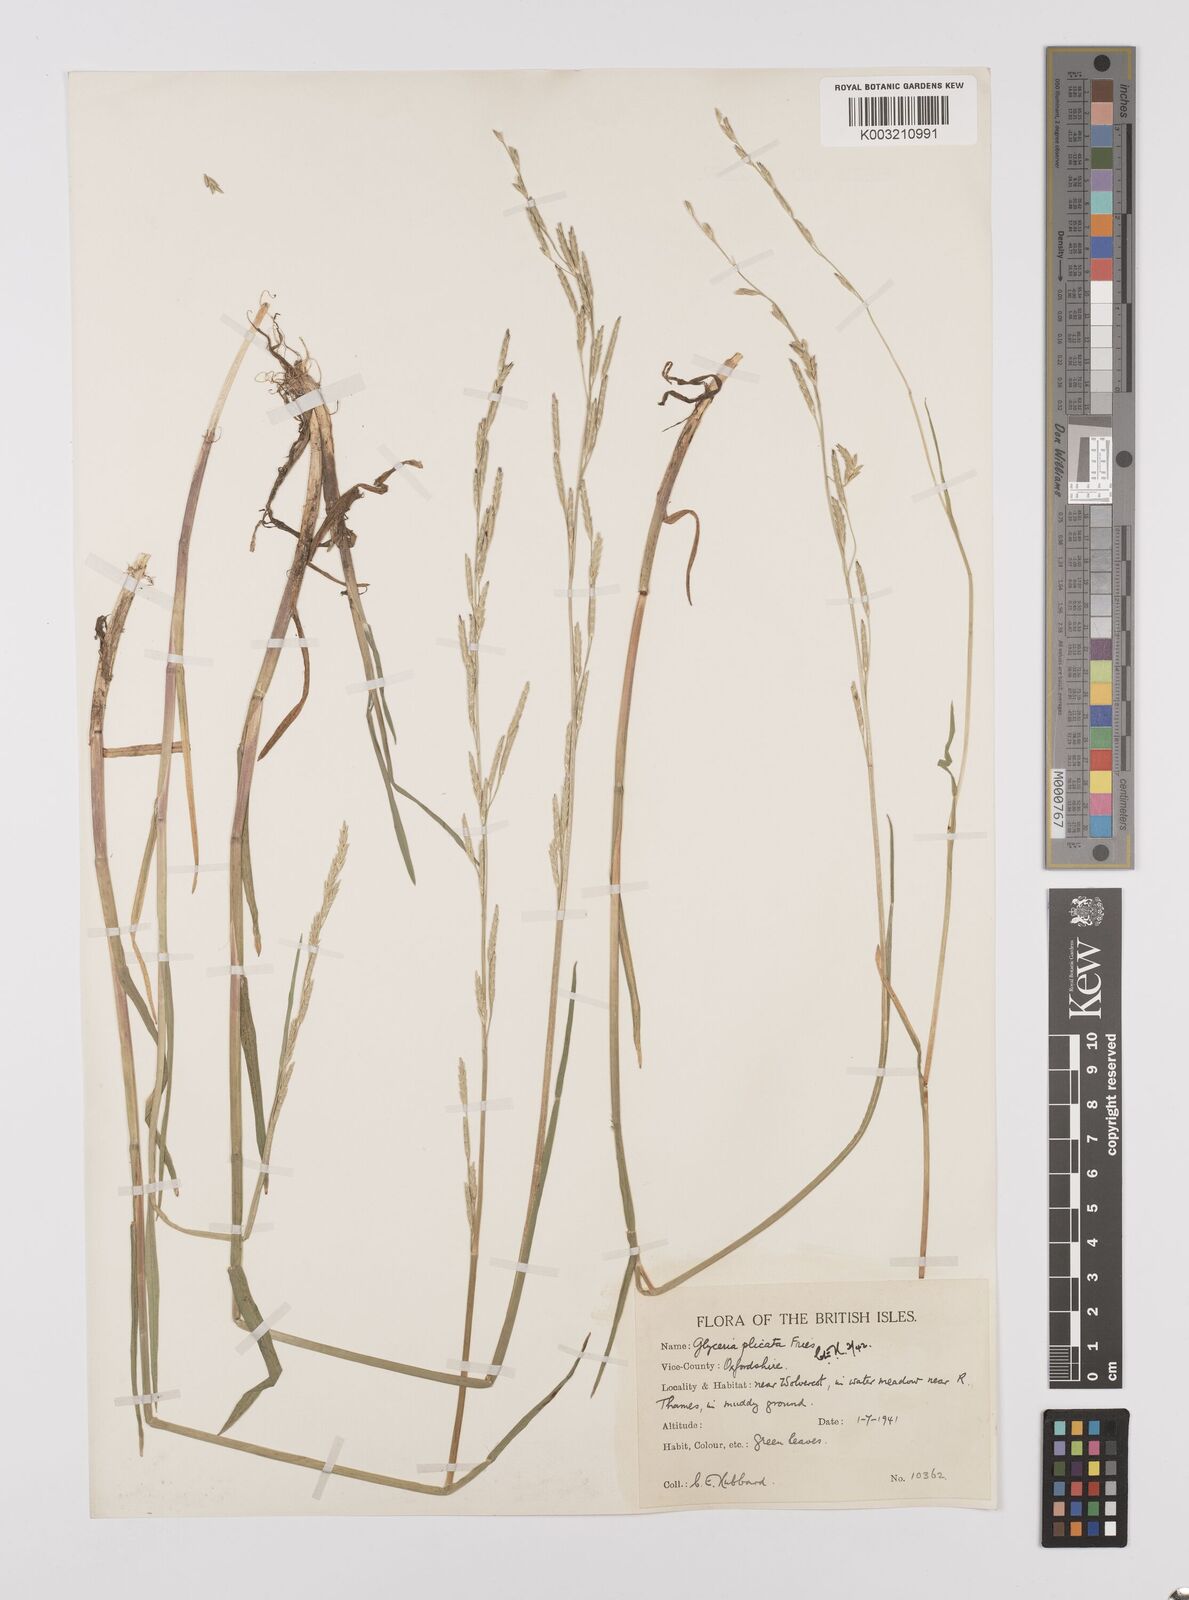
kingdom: Plantae
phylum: Tracheophyta
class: Liliopsida
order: Poales
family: Poaceae
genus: Glyceria
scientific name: Glyceria notata
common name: Plicate sweet-grass
